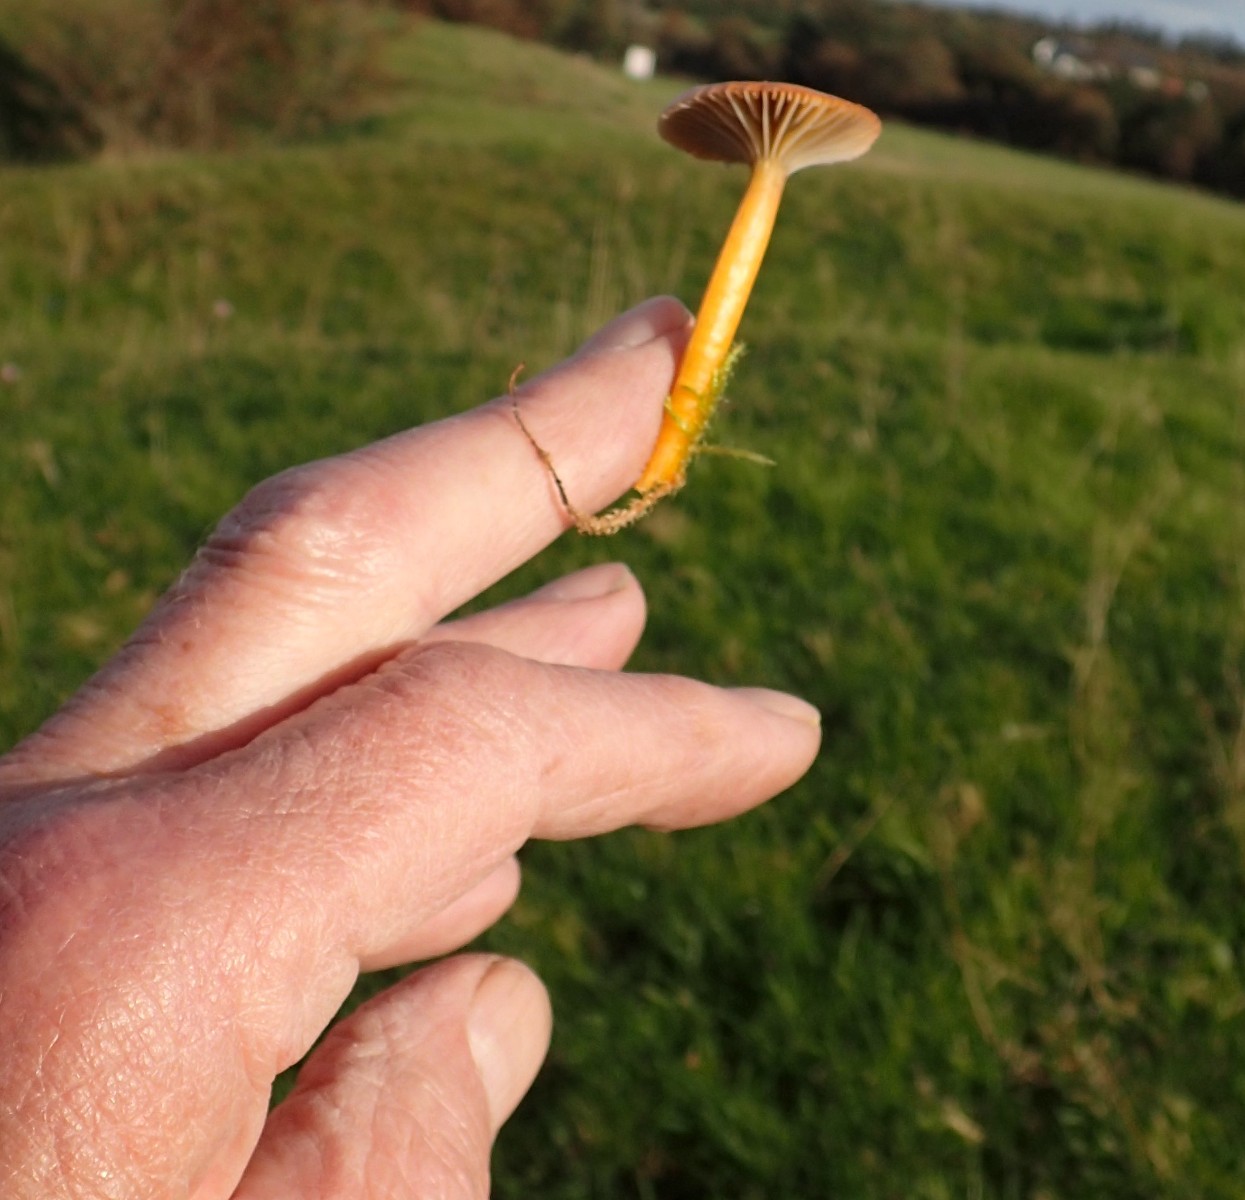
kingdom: Fungi
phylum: Basidiomycota
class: Agaricomycetes
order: Agaricales
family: Hygrophoraceae
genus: Gliophorus
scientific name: Gliophorus laetus
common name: brusk-vokshat
